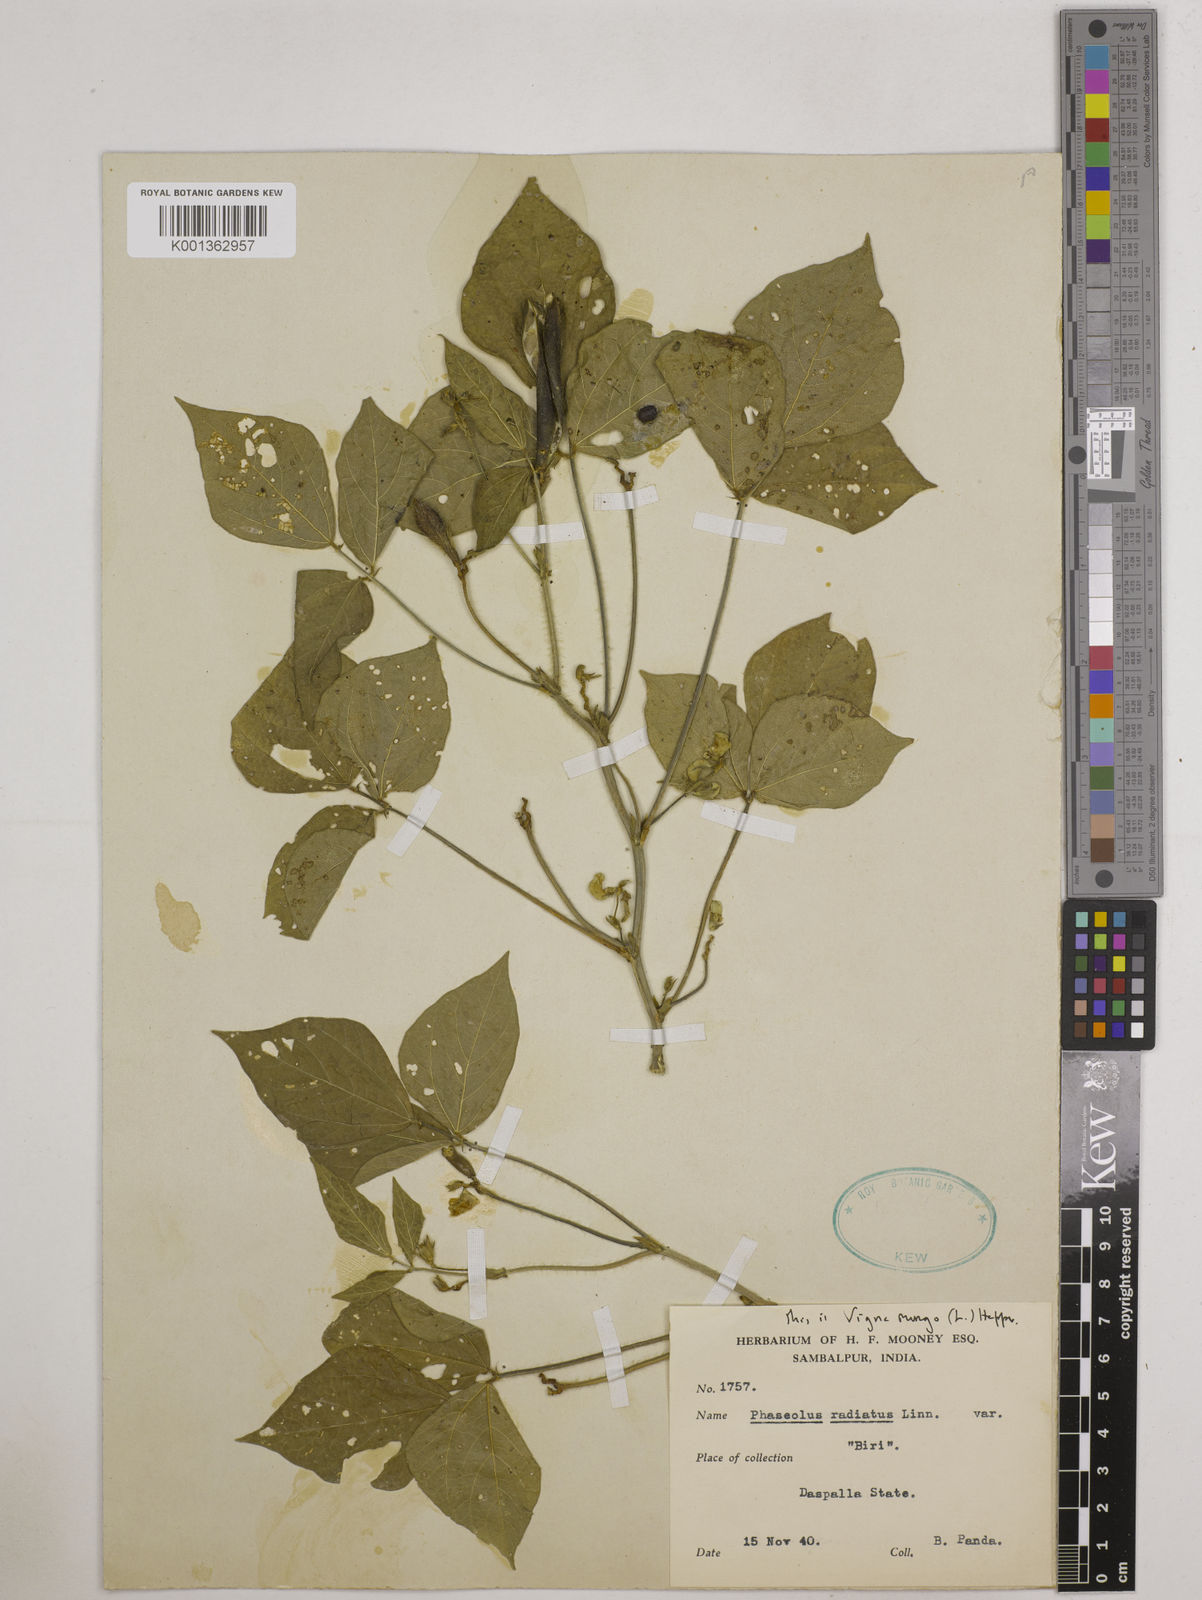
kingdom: Plantae
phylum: Tracheophyta
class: Magnoliopsida
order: Fabales
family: Fabaceae
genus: Vigna
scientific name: Vigna mungo
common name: Black gram
